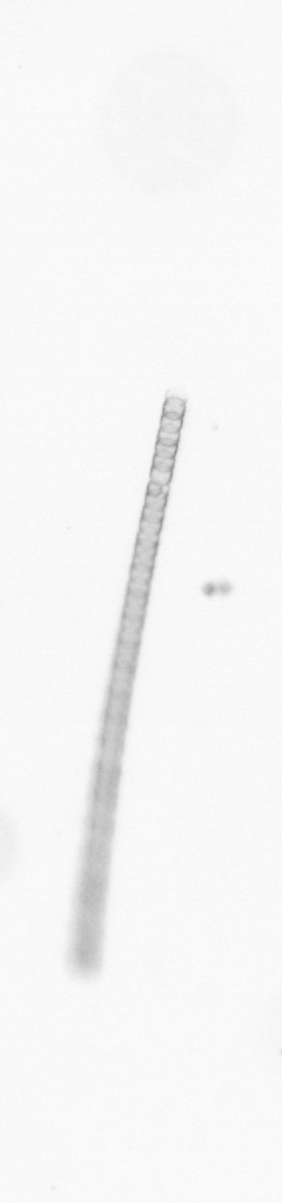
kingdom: Chromista
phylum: Ochrophyta
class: Bacillariophyceae
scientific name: Bacillariophyceae
